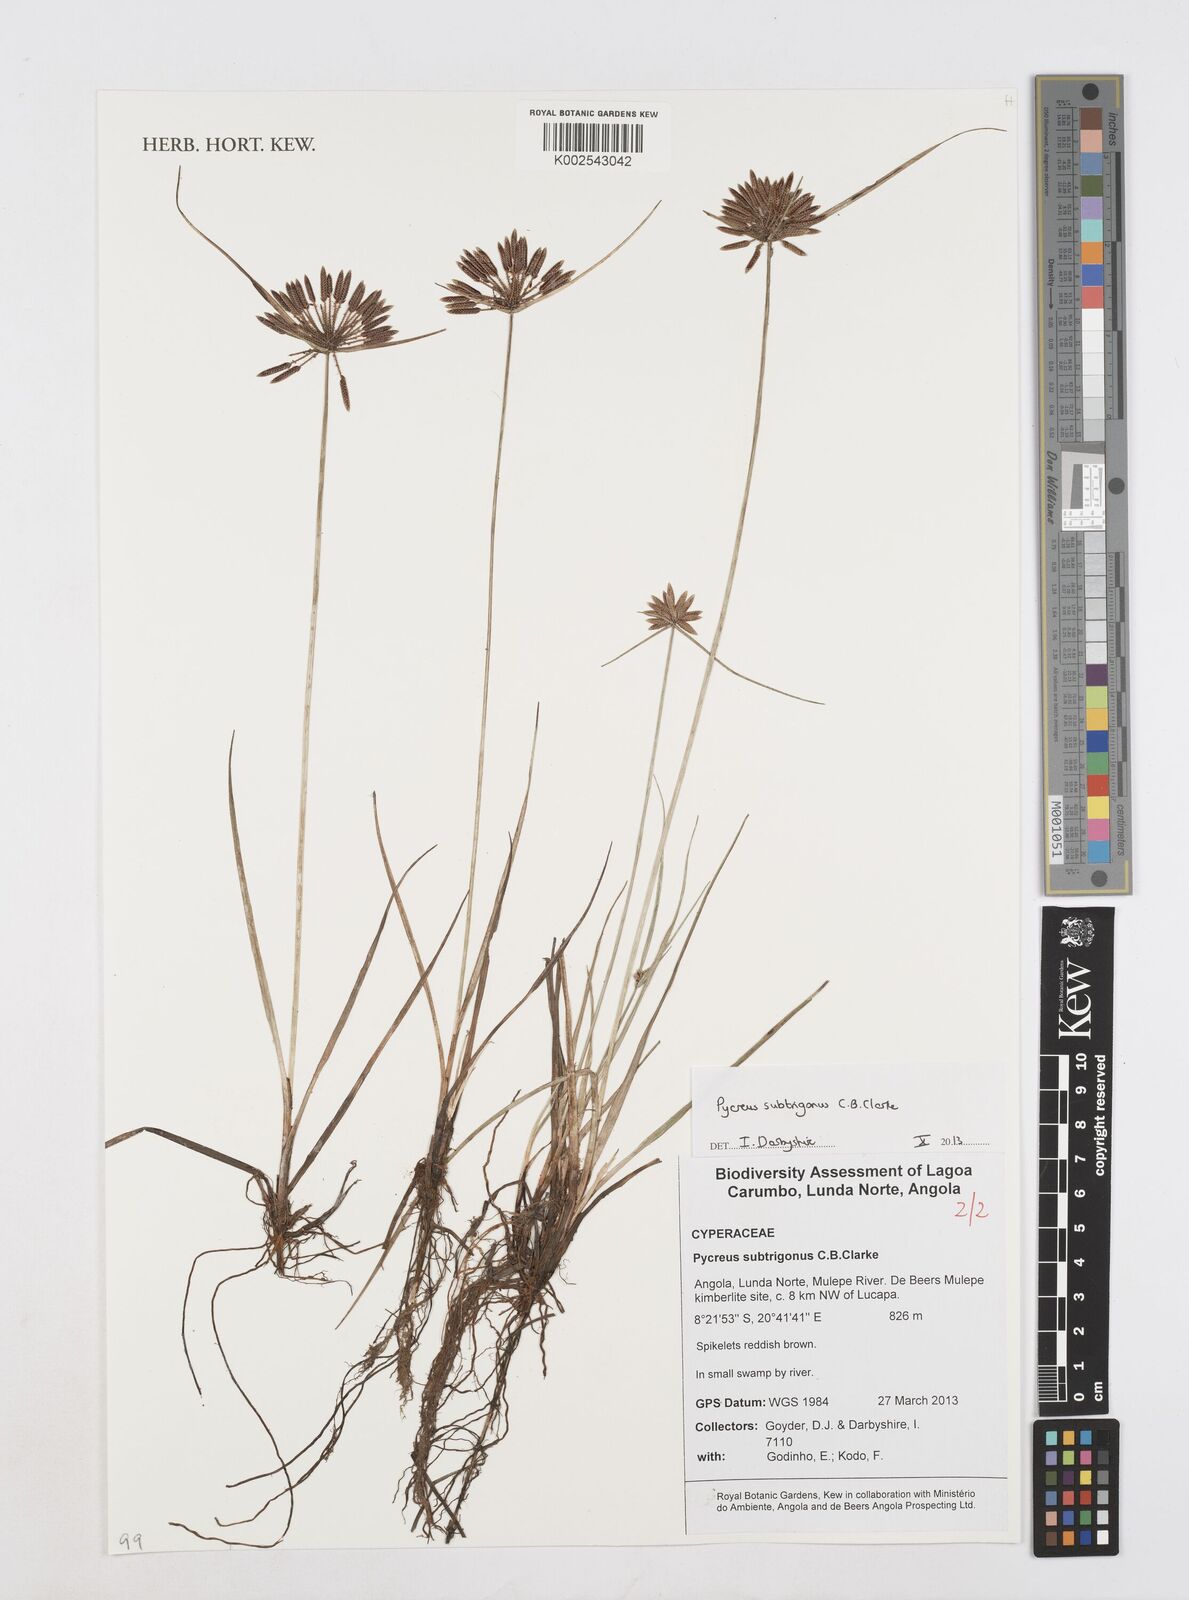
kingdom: Plantae
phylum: Tracheophyta
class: Liliopsida
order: Poales
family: Cyperaceae
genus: Cyperus
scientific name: Cyperus subtrigonus
